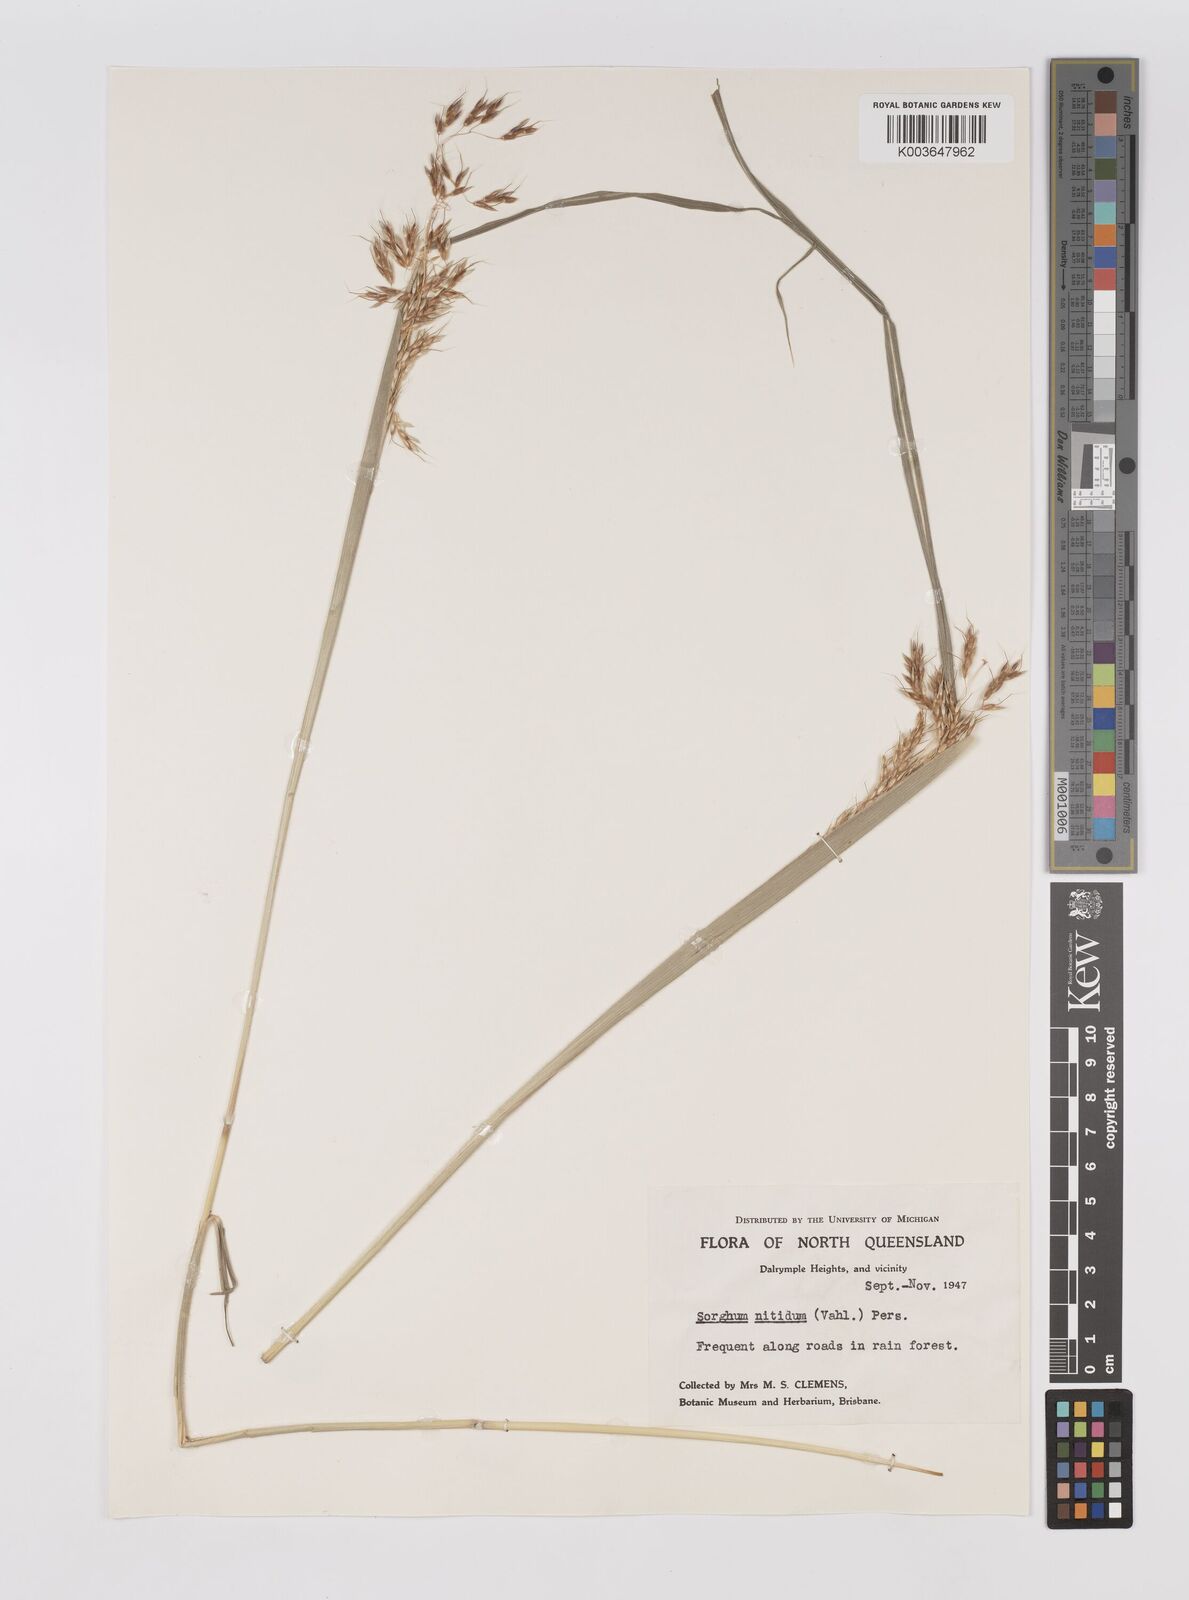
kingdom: Plantae
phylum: Tracheophyta
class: Liliopsida
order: Poales
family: Poaceae
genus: Sorghum
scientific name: Sorghum nitidum
